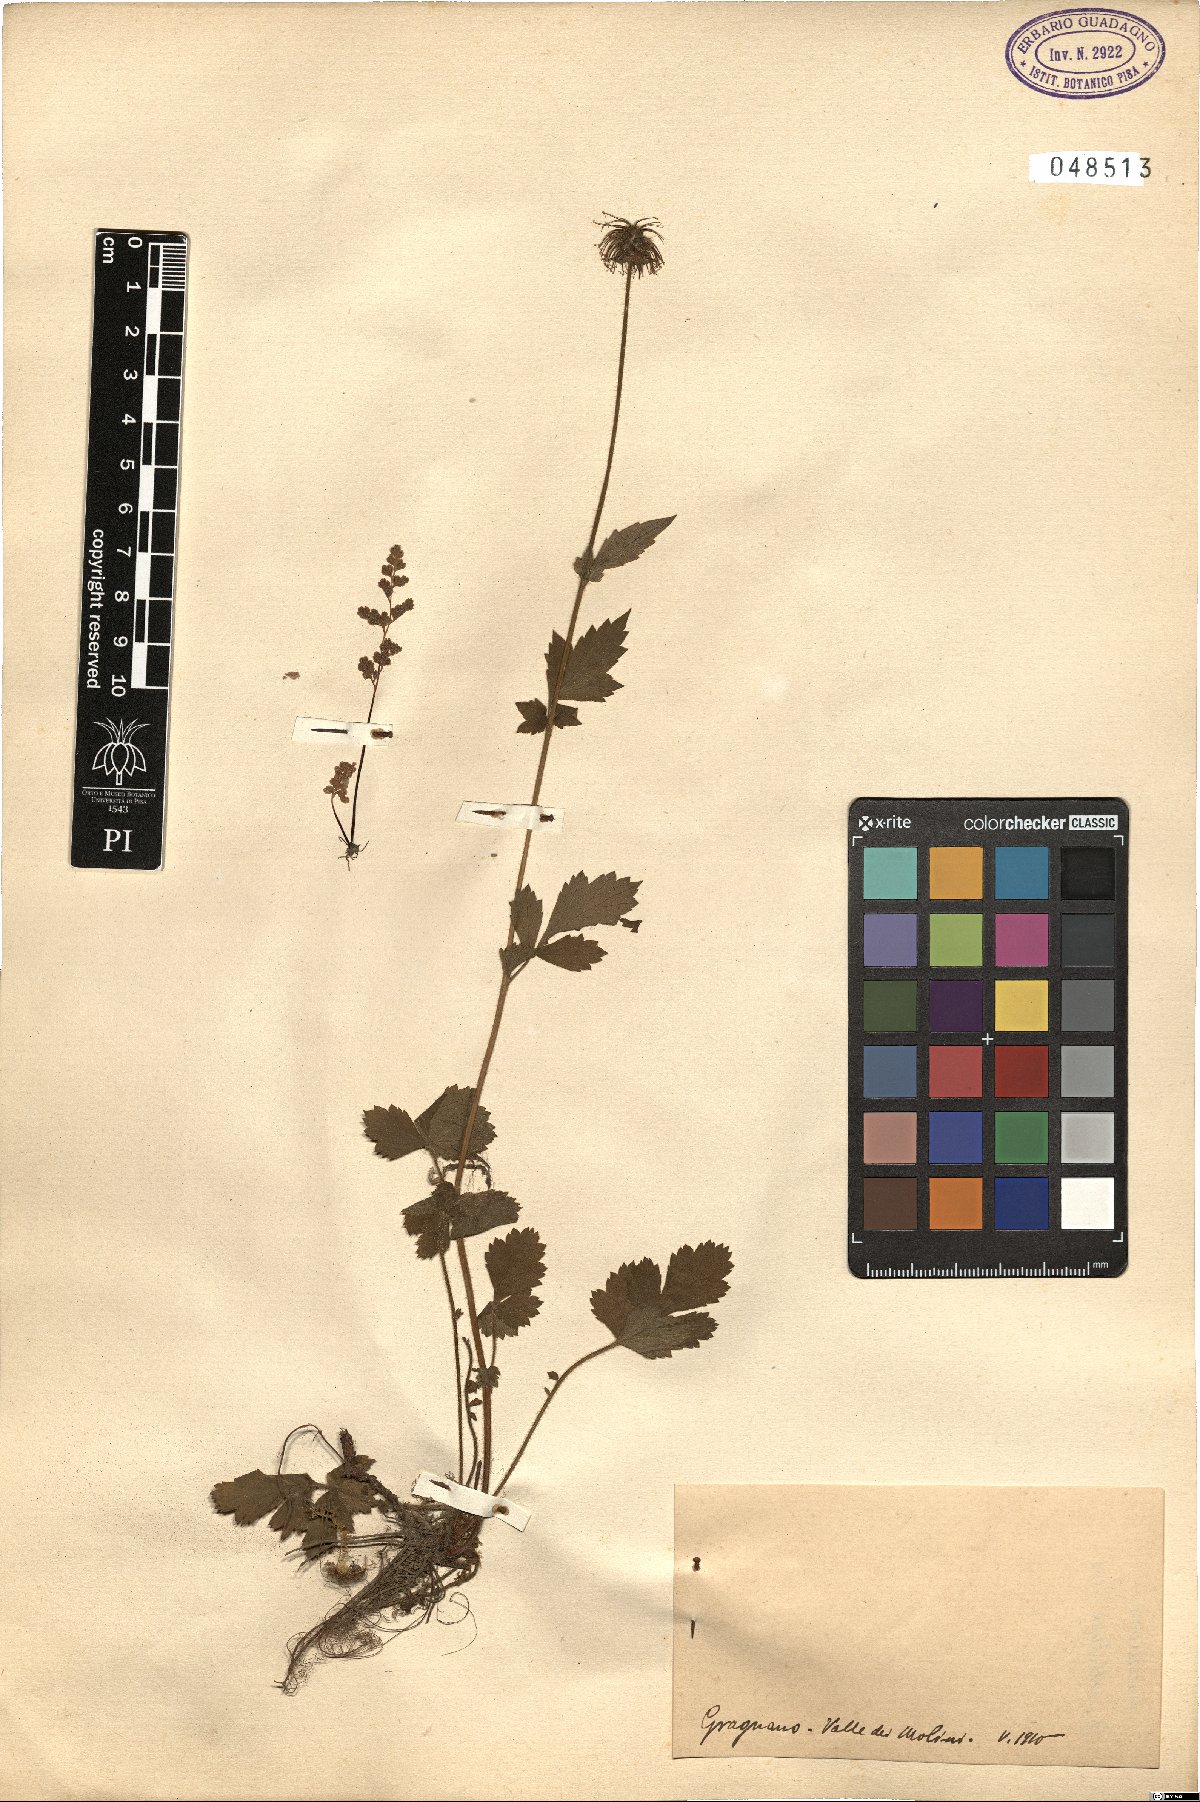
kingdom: Plantae
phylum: Tracheophyta
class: Magnoliopsida
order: Rosales
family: Rosaceae
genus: Geum
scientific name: Geum
